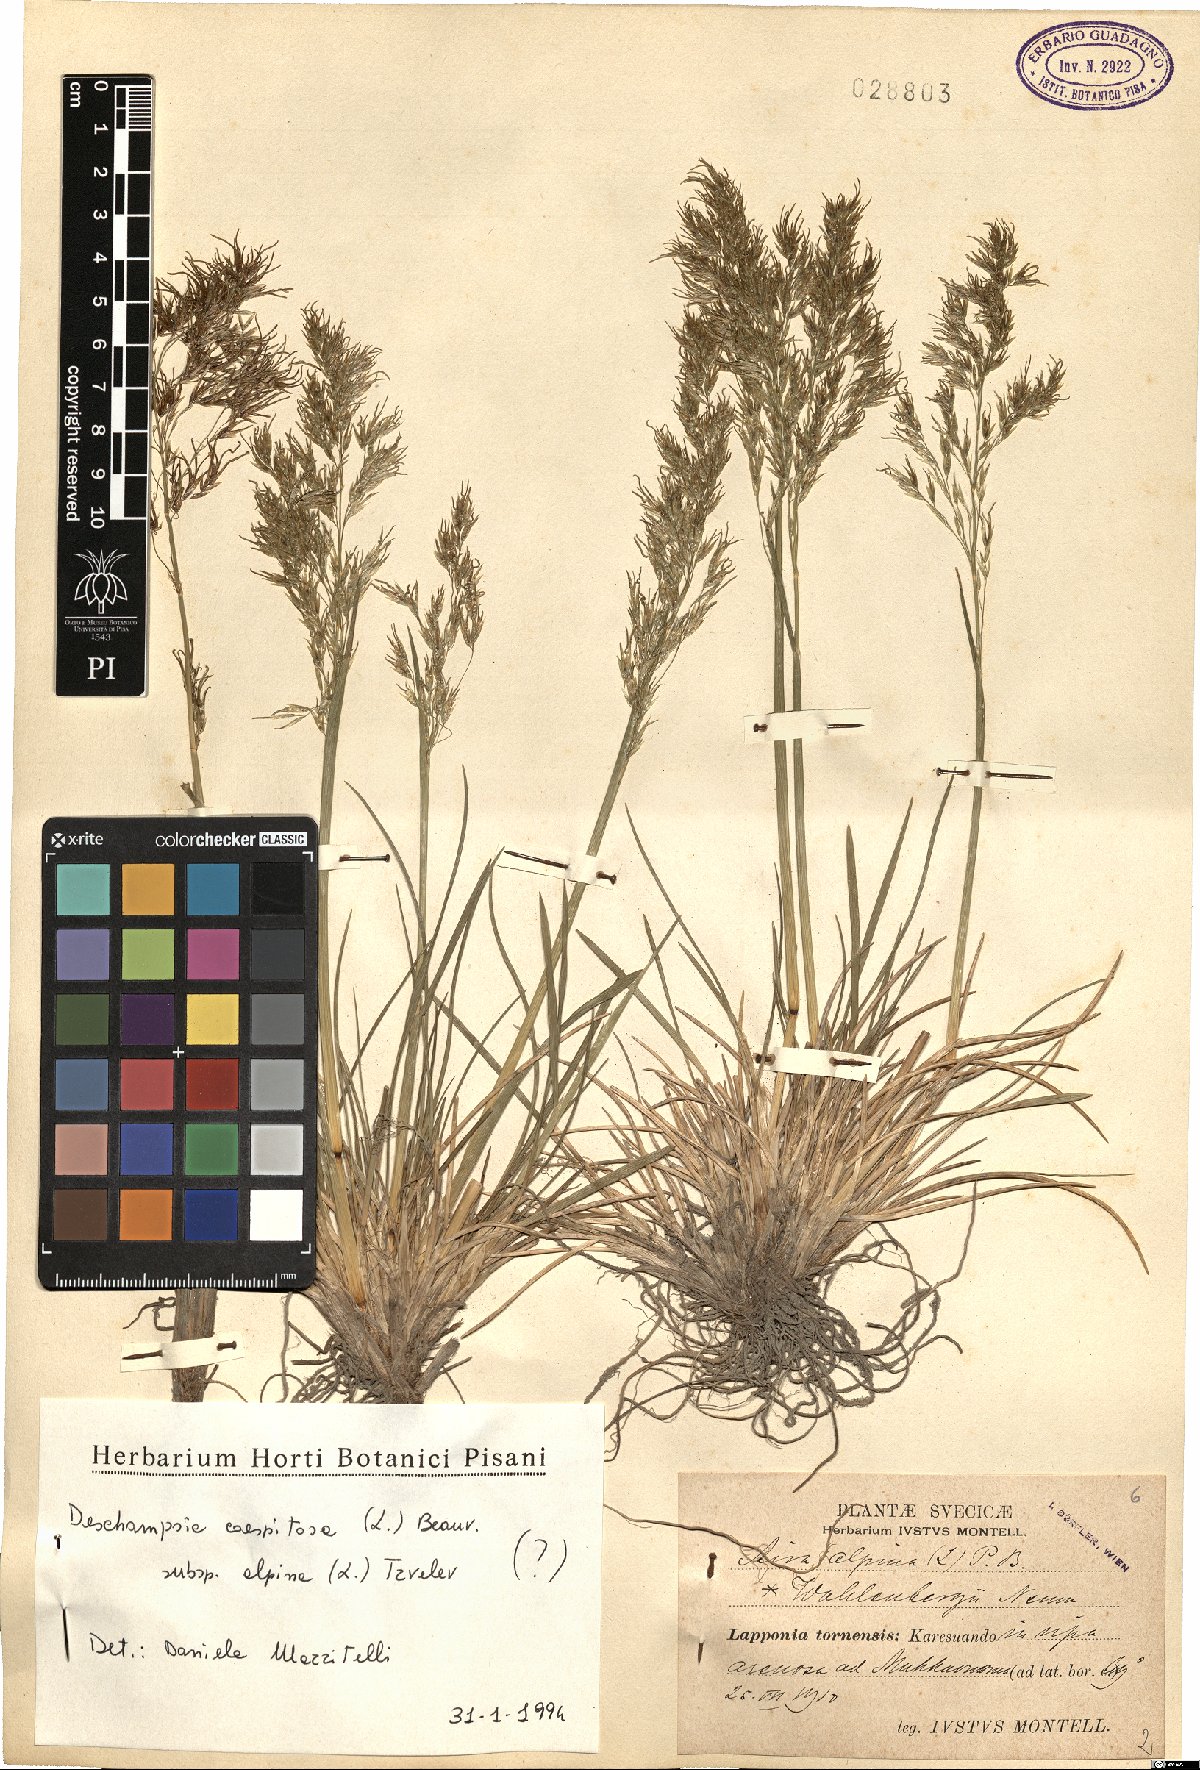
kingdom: Plantae
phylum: Tracheophyta
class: Liliopsida
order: Poales
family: Poaceae
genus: Deschampsia
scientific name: Deschampsia cespitosa
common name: Tufted hair-grass
